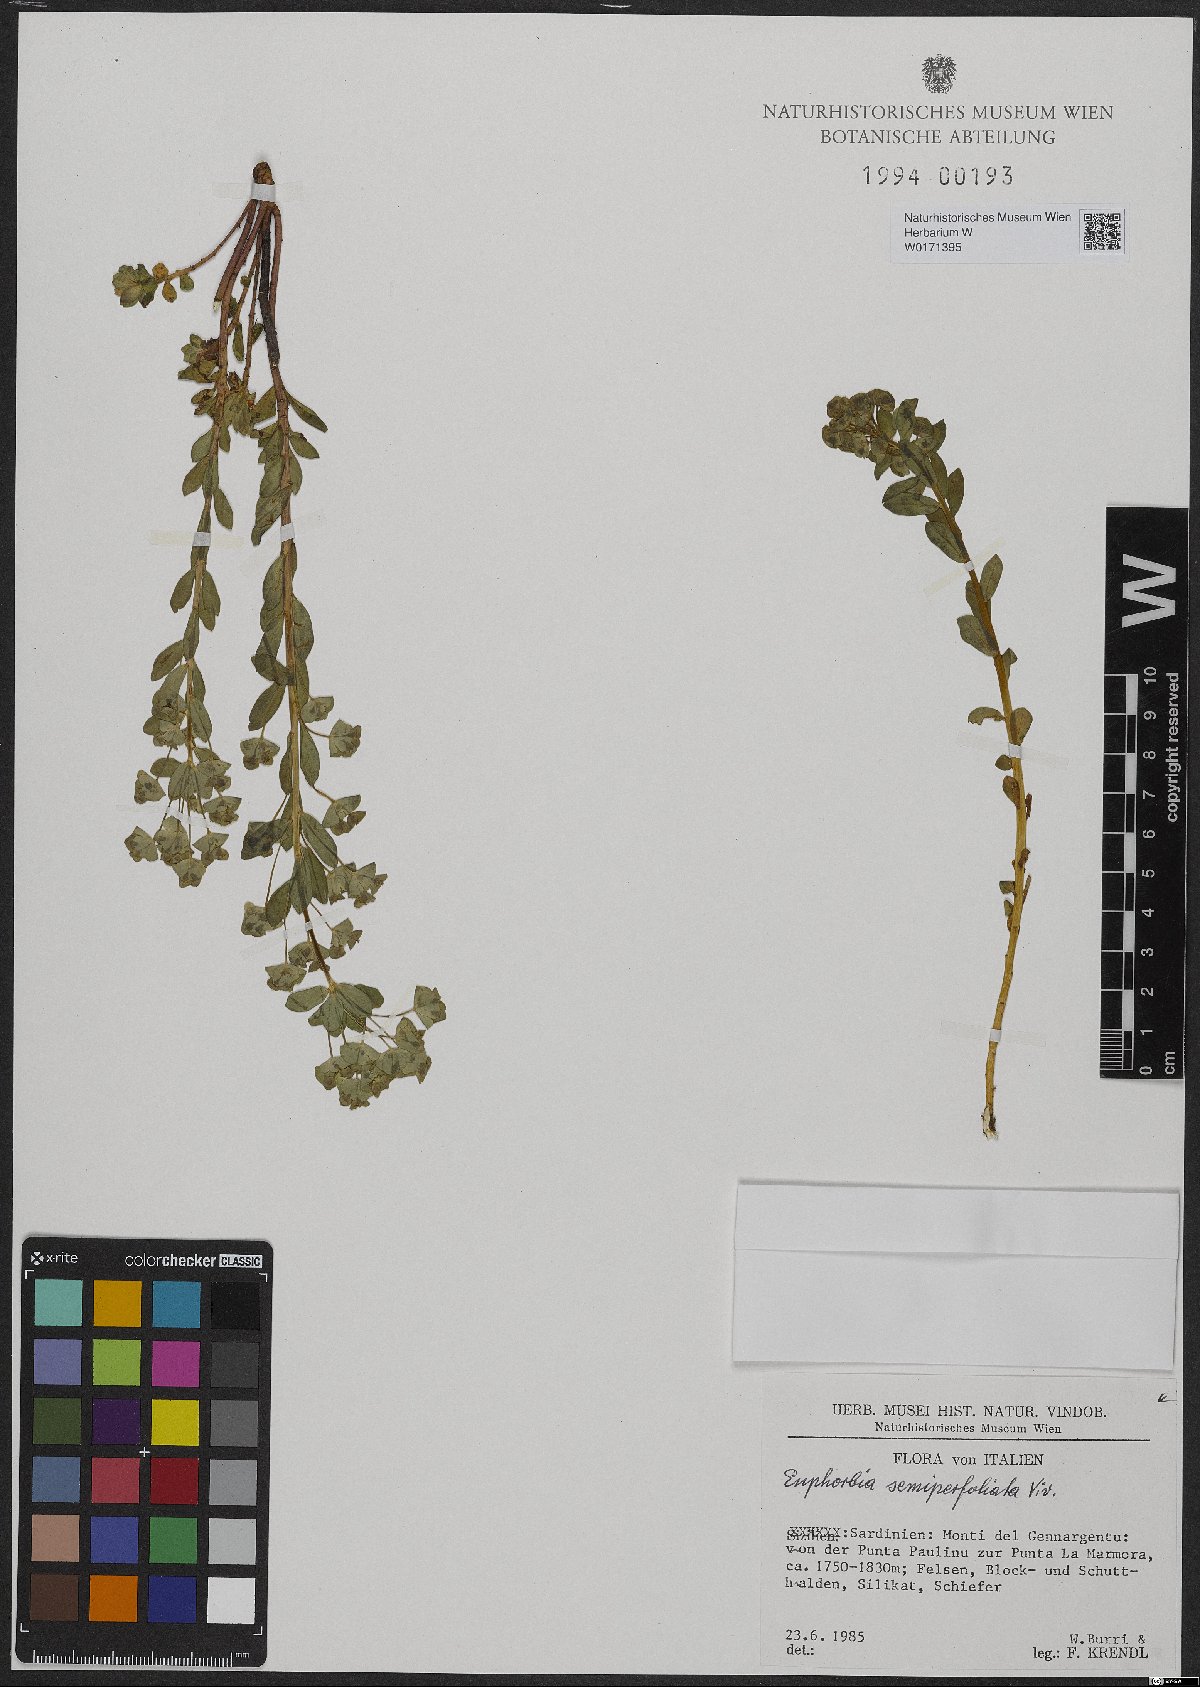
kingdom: Plantae
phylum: Tracheophyta
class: Magnoliopsida
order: Malpighiales
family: Euphorbiaceae
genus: Euphorbia
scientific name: Euphorbia semiperfoliata
